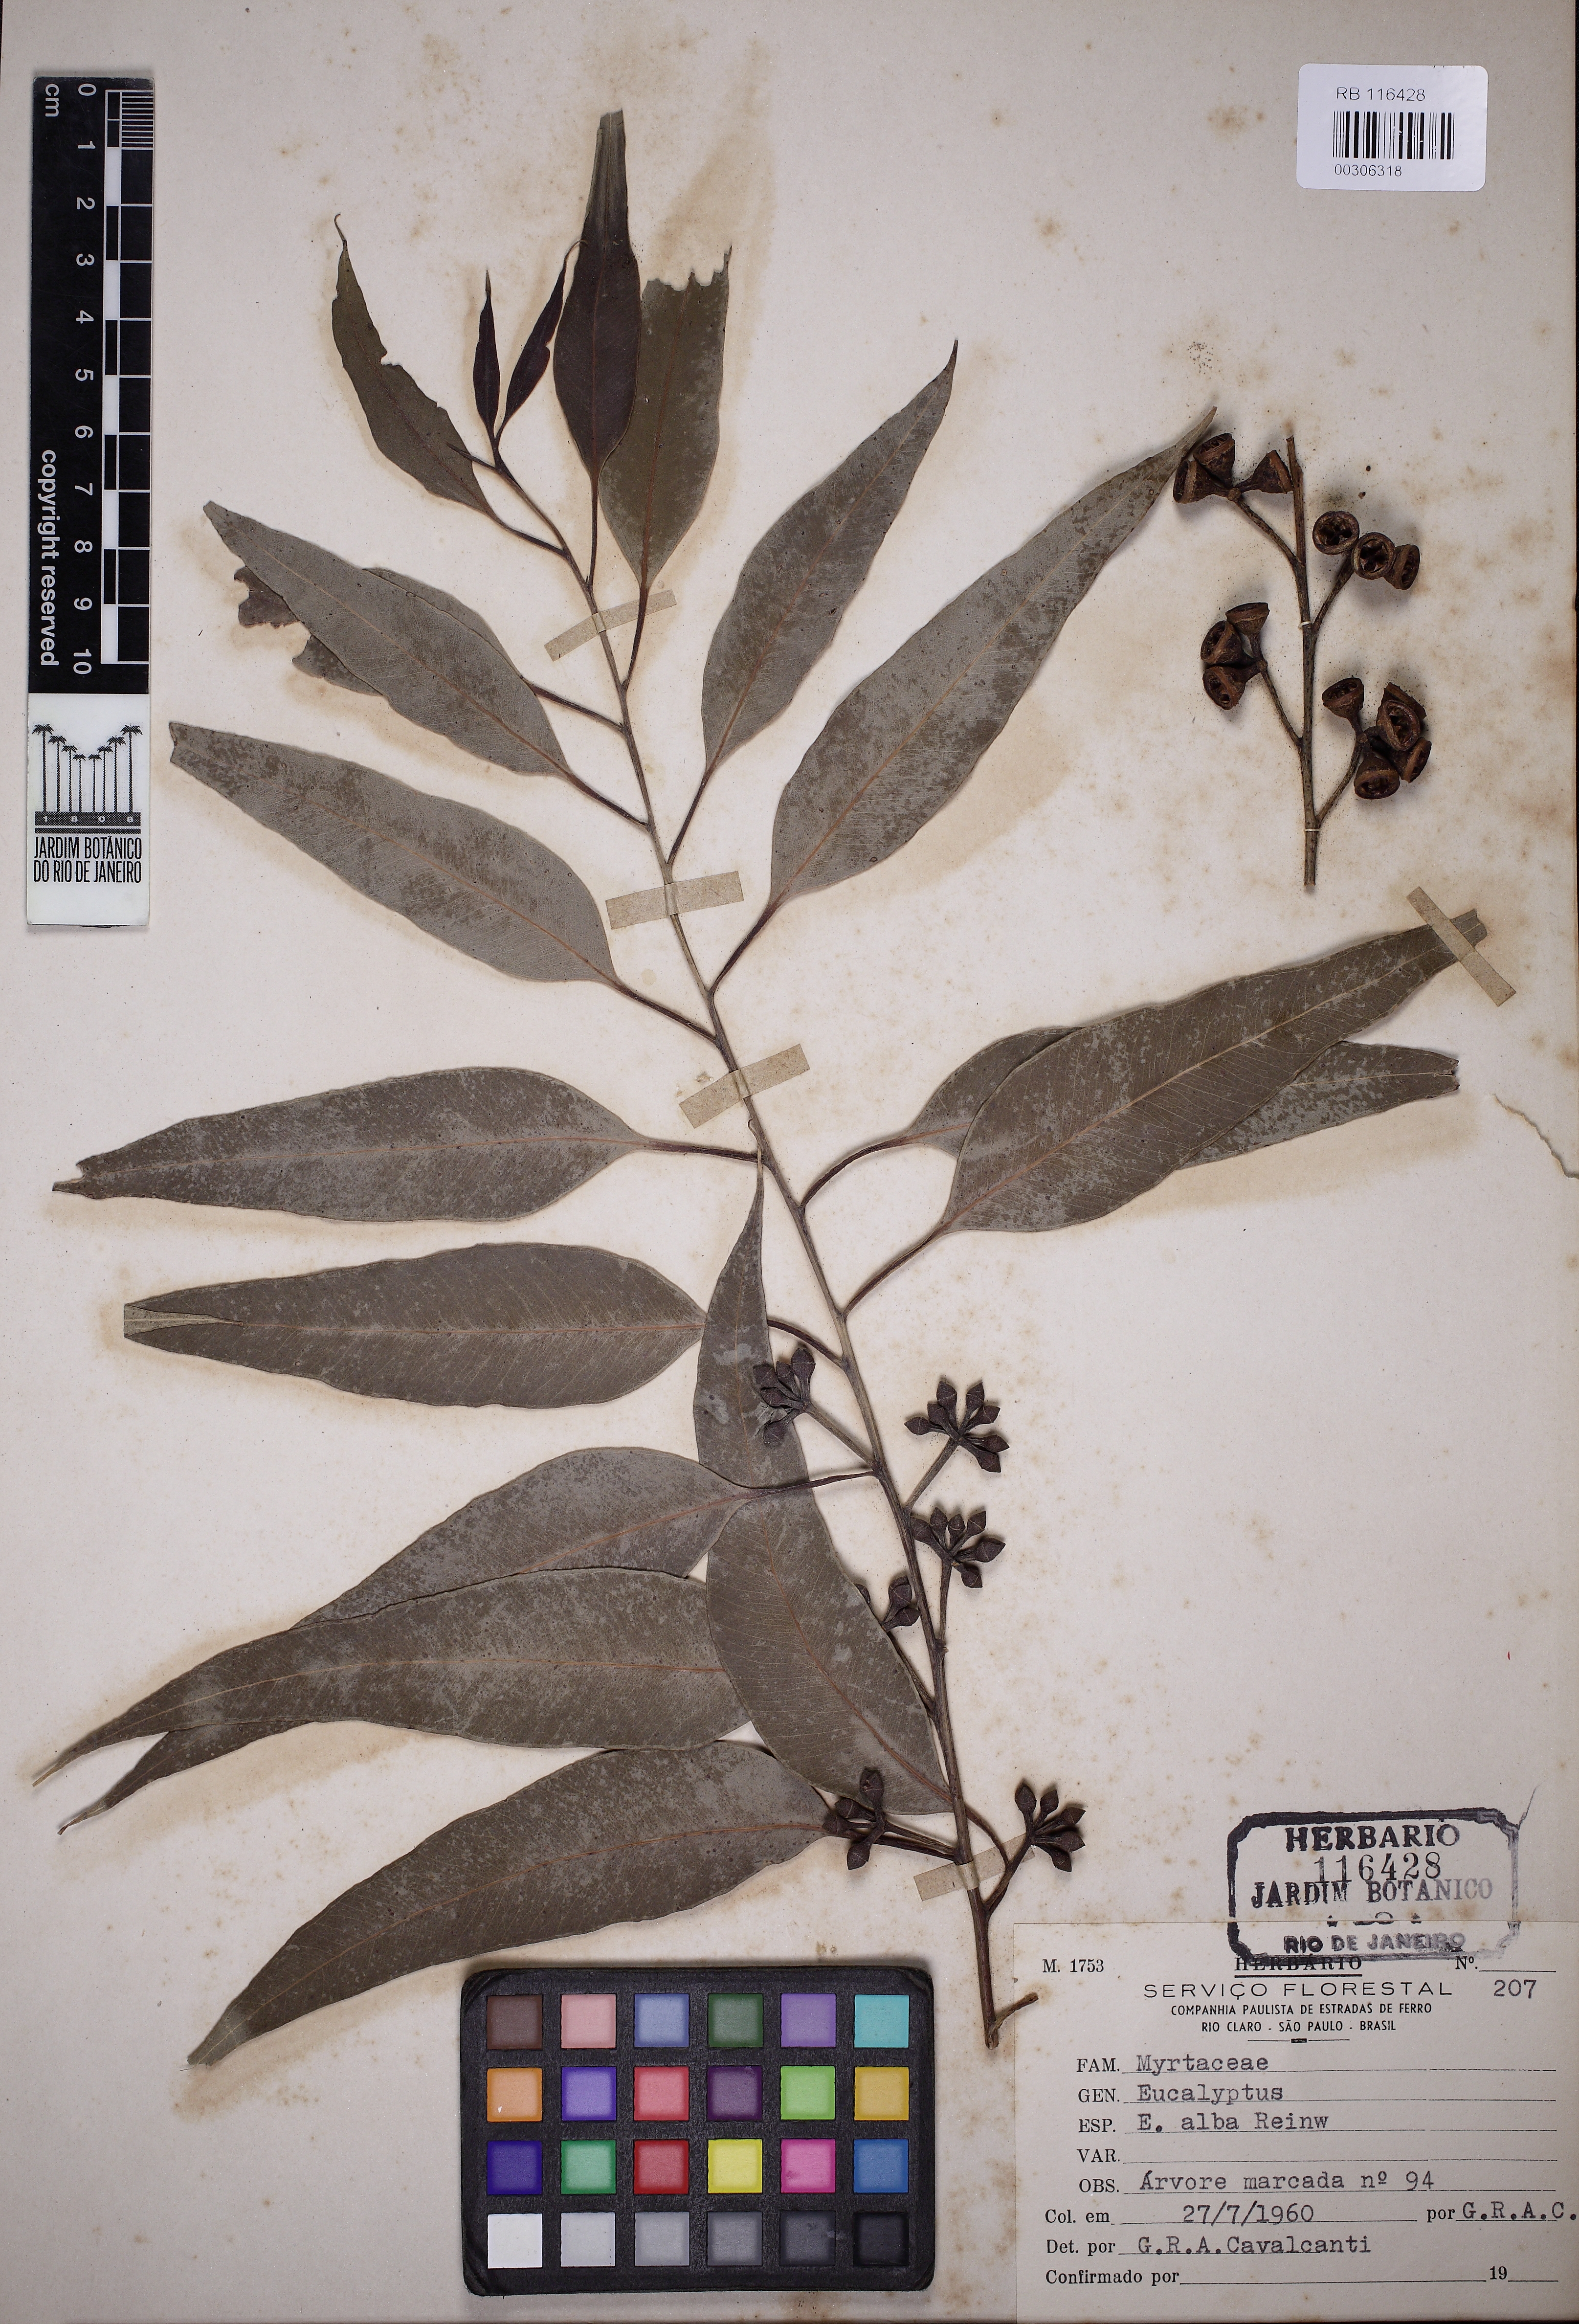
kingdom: Plantae
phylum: Tracheophyta
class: Magnoliopsida
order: Myrtales
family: Myrtaceae
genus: Eucalyptus
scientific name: Eucalyptus alba
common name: Khaki-gum
